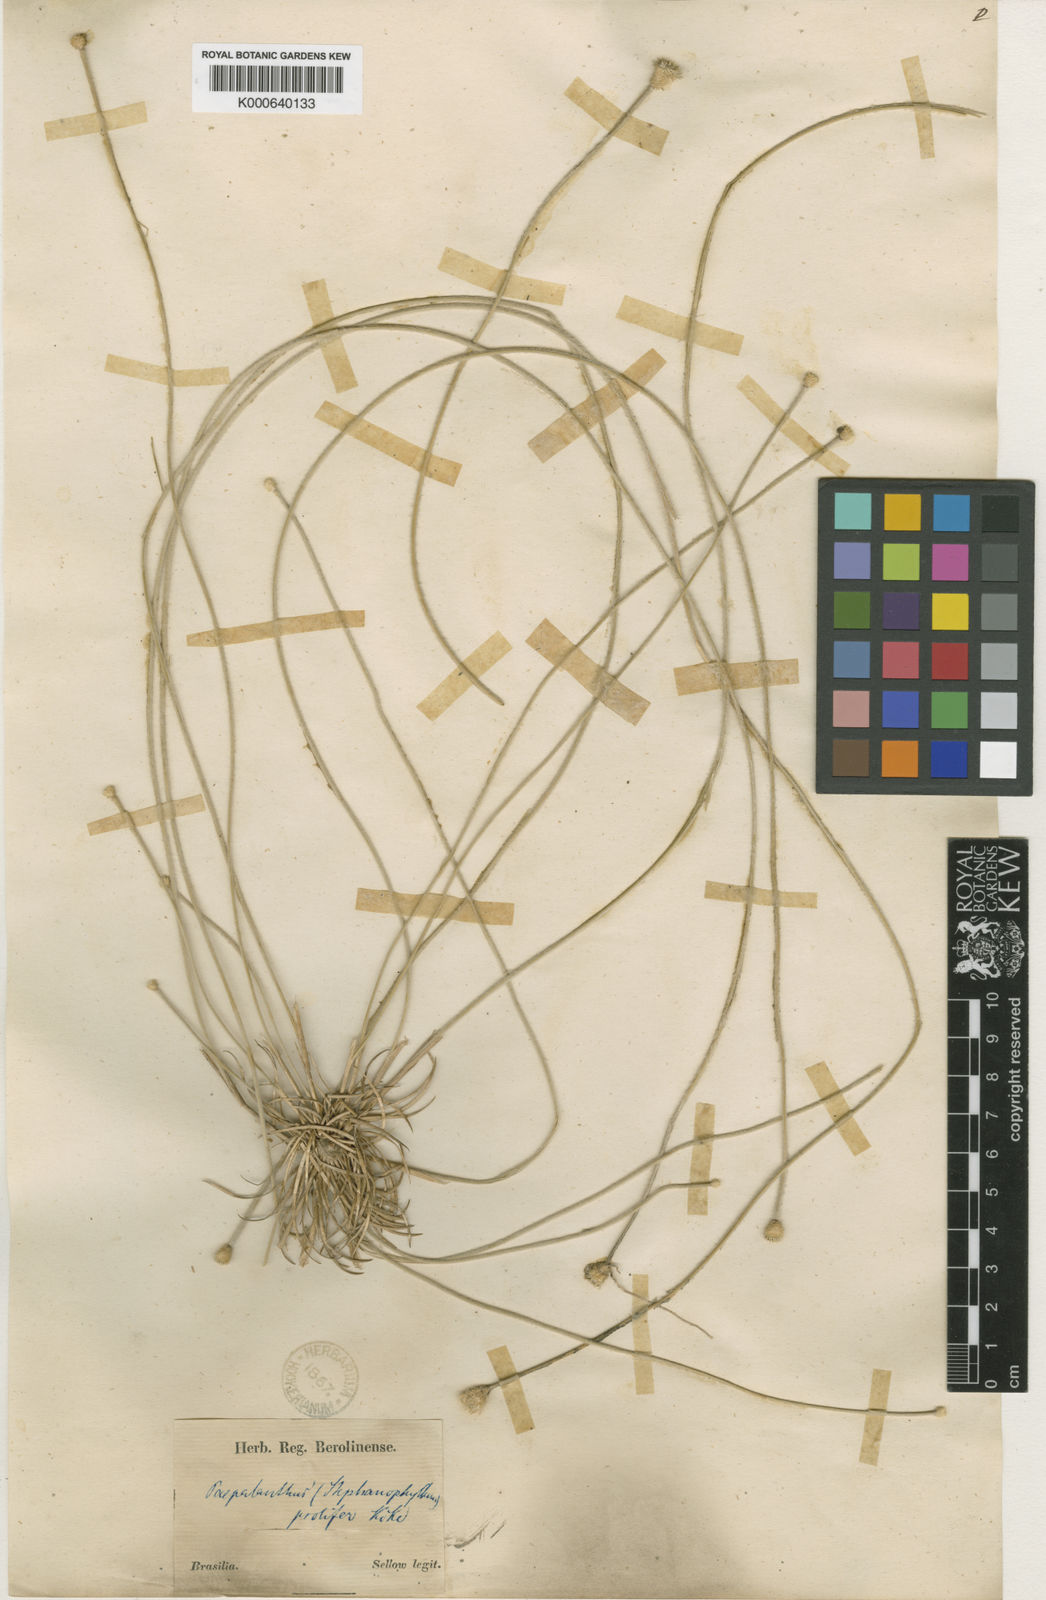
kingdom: Plantae
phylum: Tracheophyta
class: Liliopsida
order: Poales
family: Eriocaulaceae
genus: Leiothrix
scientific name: Leiothrix prolifera
